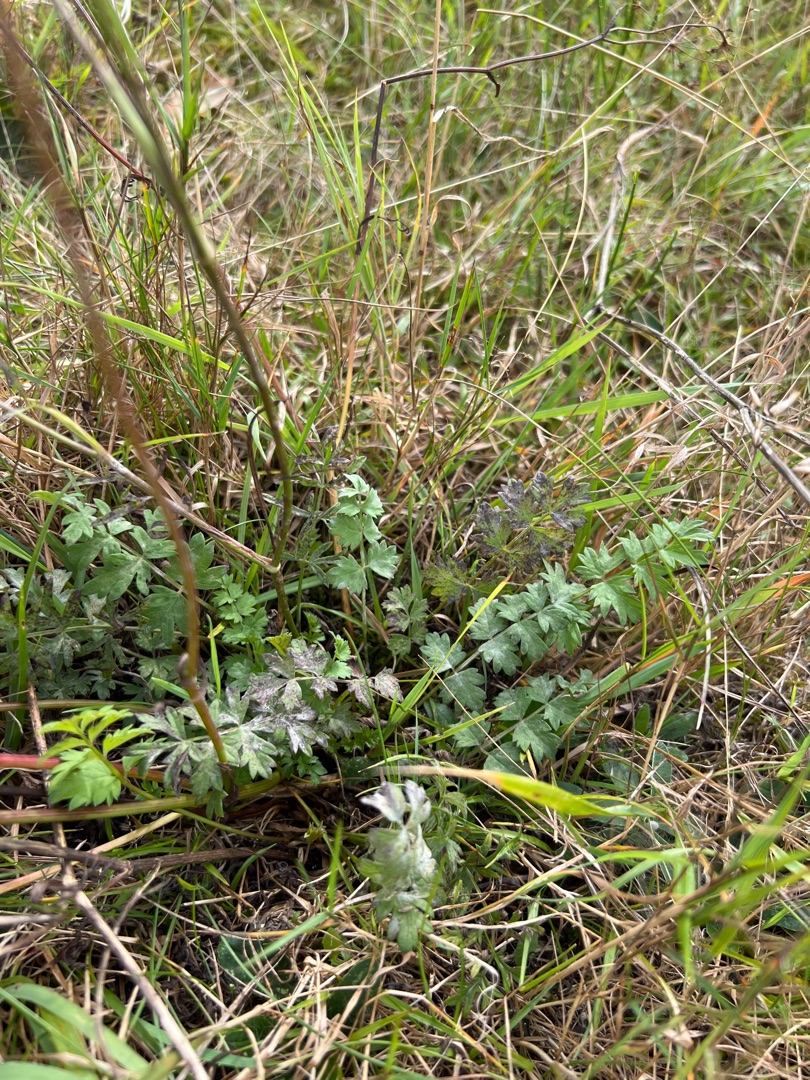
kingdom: Plantae
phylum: Tracheophyta
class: Magnoliopsida
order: Apiales
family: Apiaceae
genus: Pimpinella
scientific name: Pimpinella saxifraga
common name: Almindelig pimpinelle
